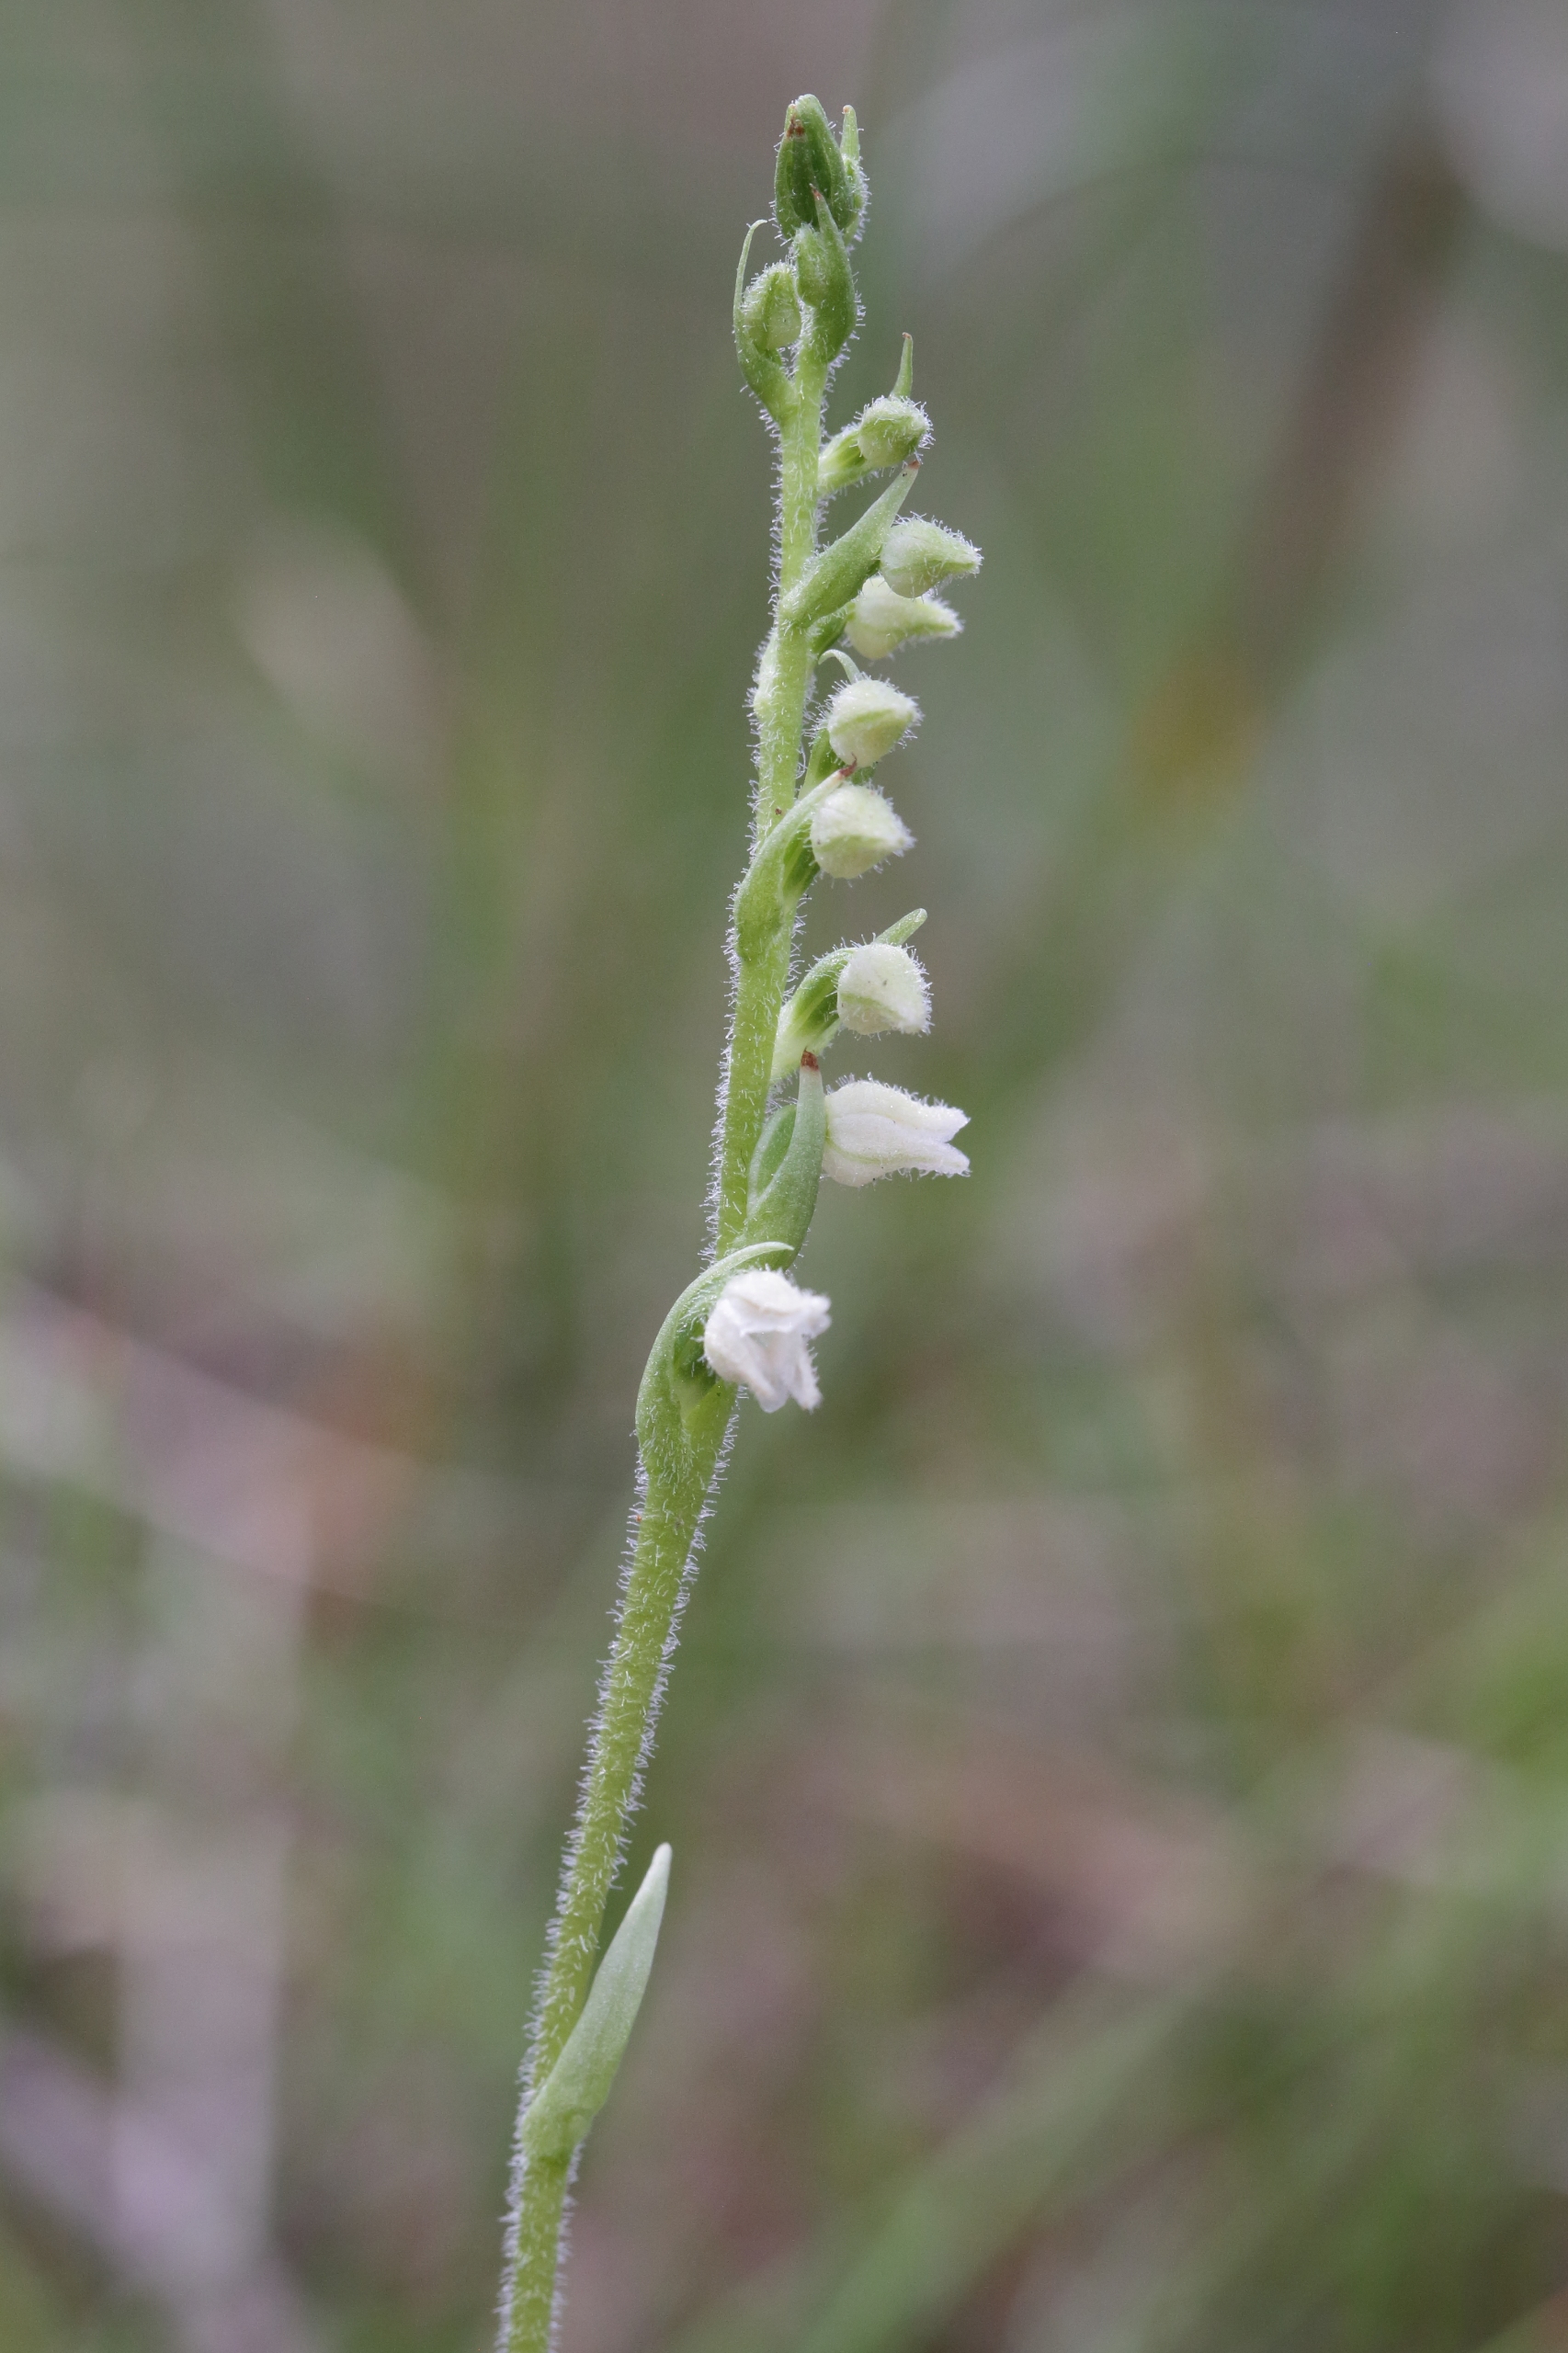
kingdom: Plantae
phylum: Tracheophyta
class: Liliopsida
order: Asparagales
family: Orchidaceae
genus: Goodyera
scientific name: Goodyera repens
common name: Knærod
